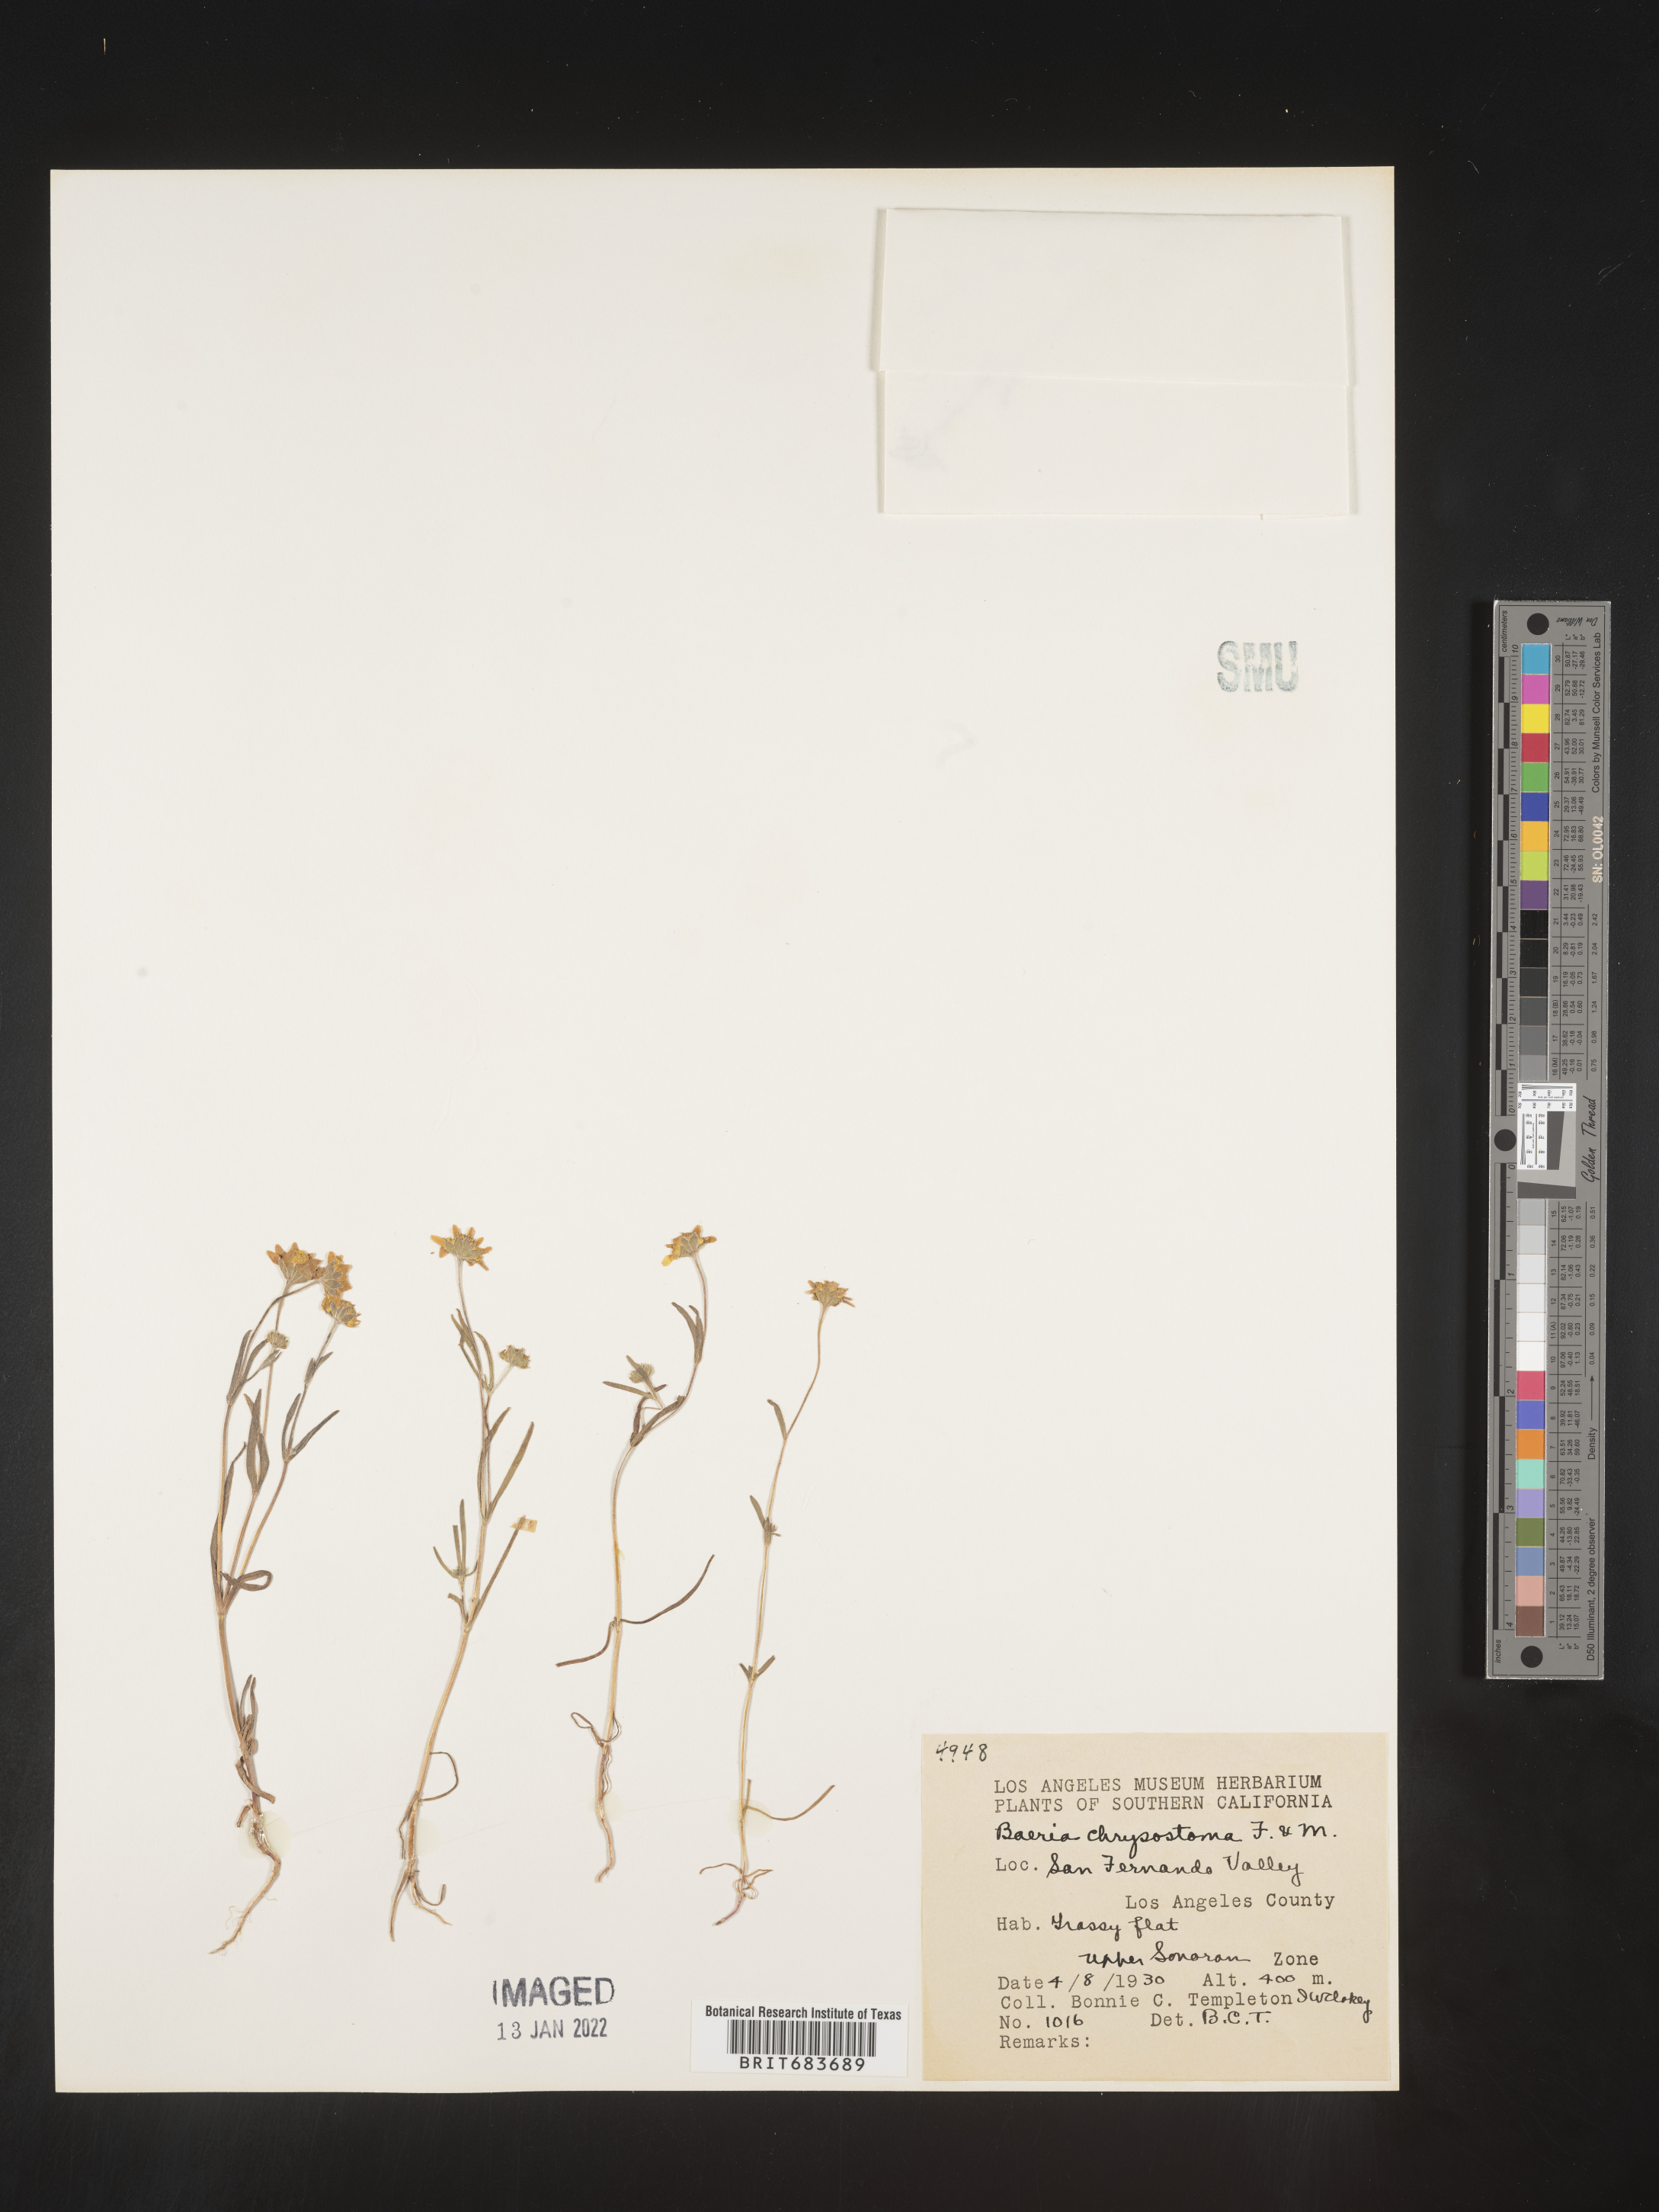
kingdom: Plantae
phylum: Tracheophyta
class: Magnoliopsida
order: Asterales
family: Asteraceae
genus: Lasthenia
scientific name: Lasthenia
